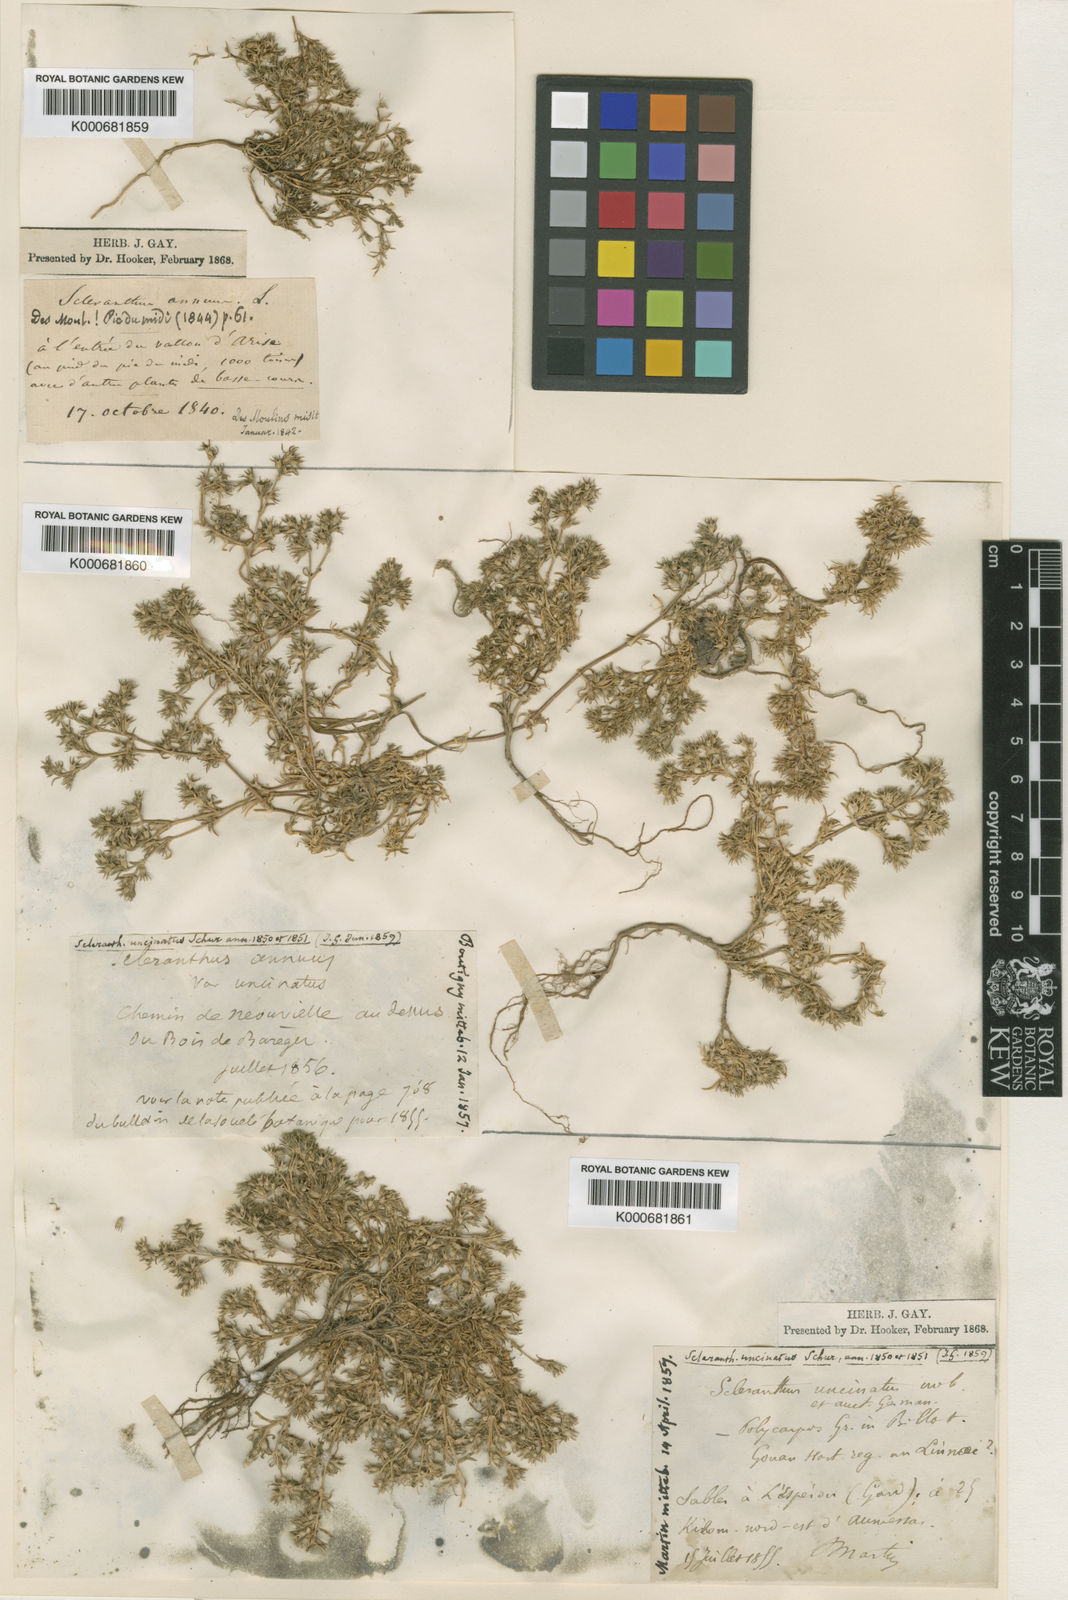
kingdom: Plantae
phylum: Tracheophyta
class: Magnoliopsida
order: Caryophyllales
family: Caryophyllaceae
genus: Scleranthus
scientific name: Scleranthus uncinatus
